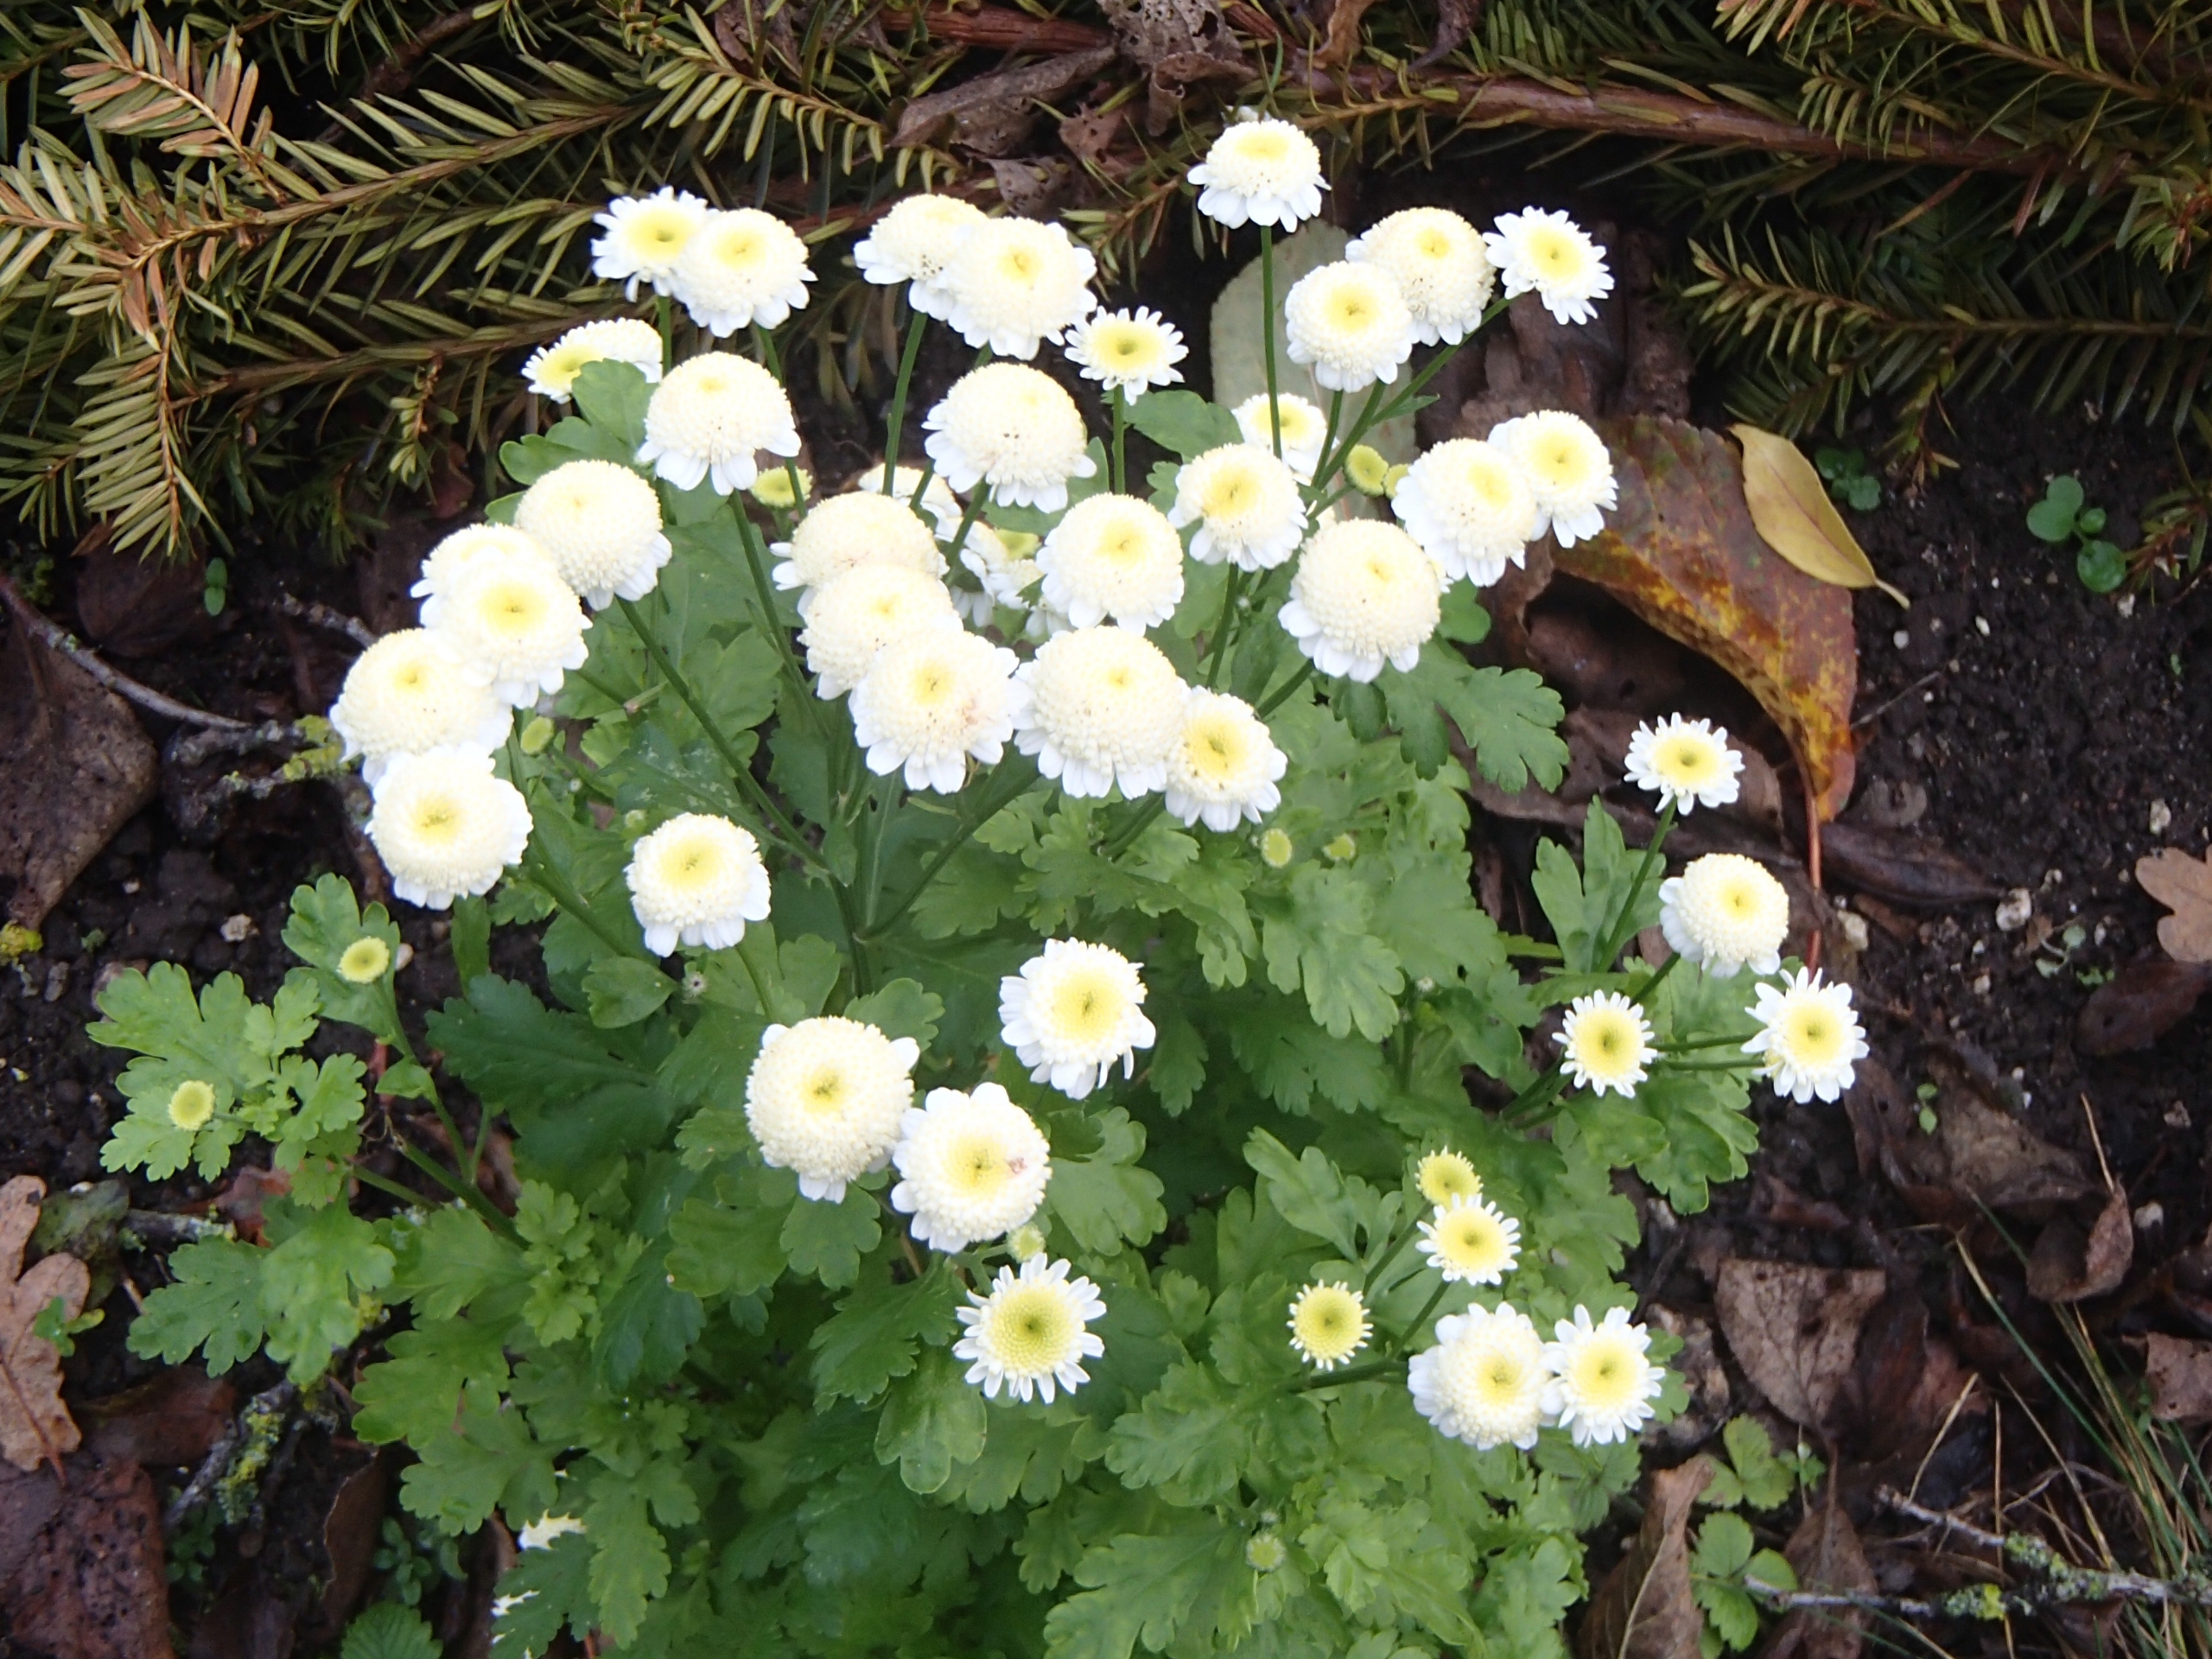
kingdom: Plantae
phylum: Tracheophyta
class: Magnoliopsida
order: Asterales
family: Asteraceae
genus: Tanacetum
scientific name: Tanacetum parthenium
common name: Matrem
